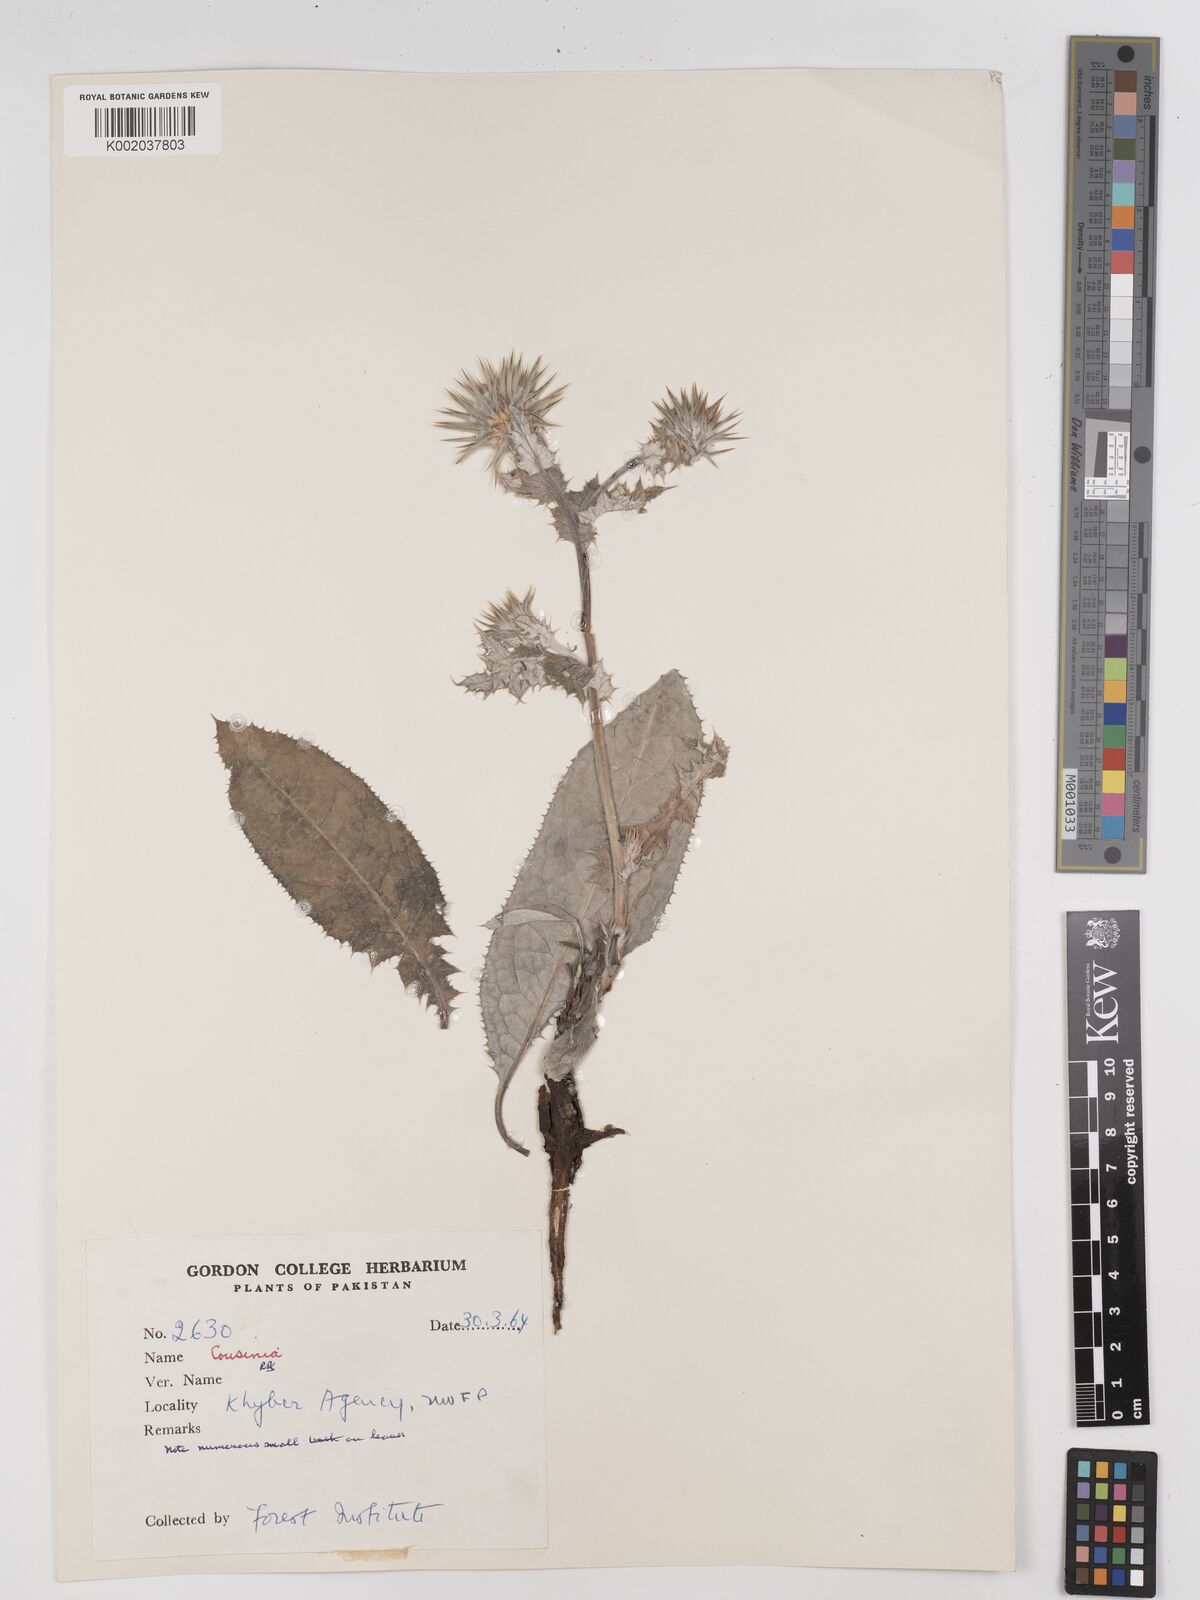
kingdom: Plantae
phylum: Tracheophyta
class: Magnoliopsida
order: Asterales
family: Asteraceae
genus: Cousinia
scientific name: Cousinia
